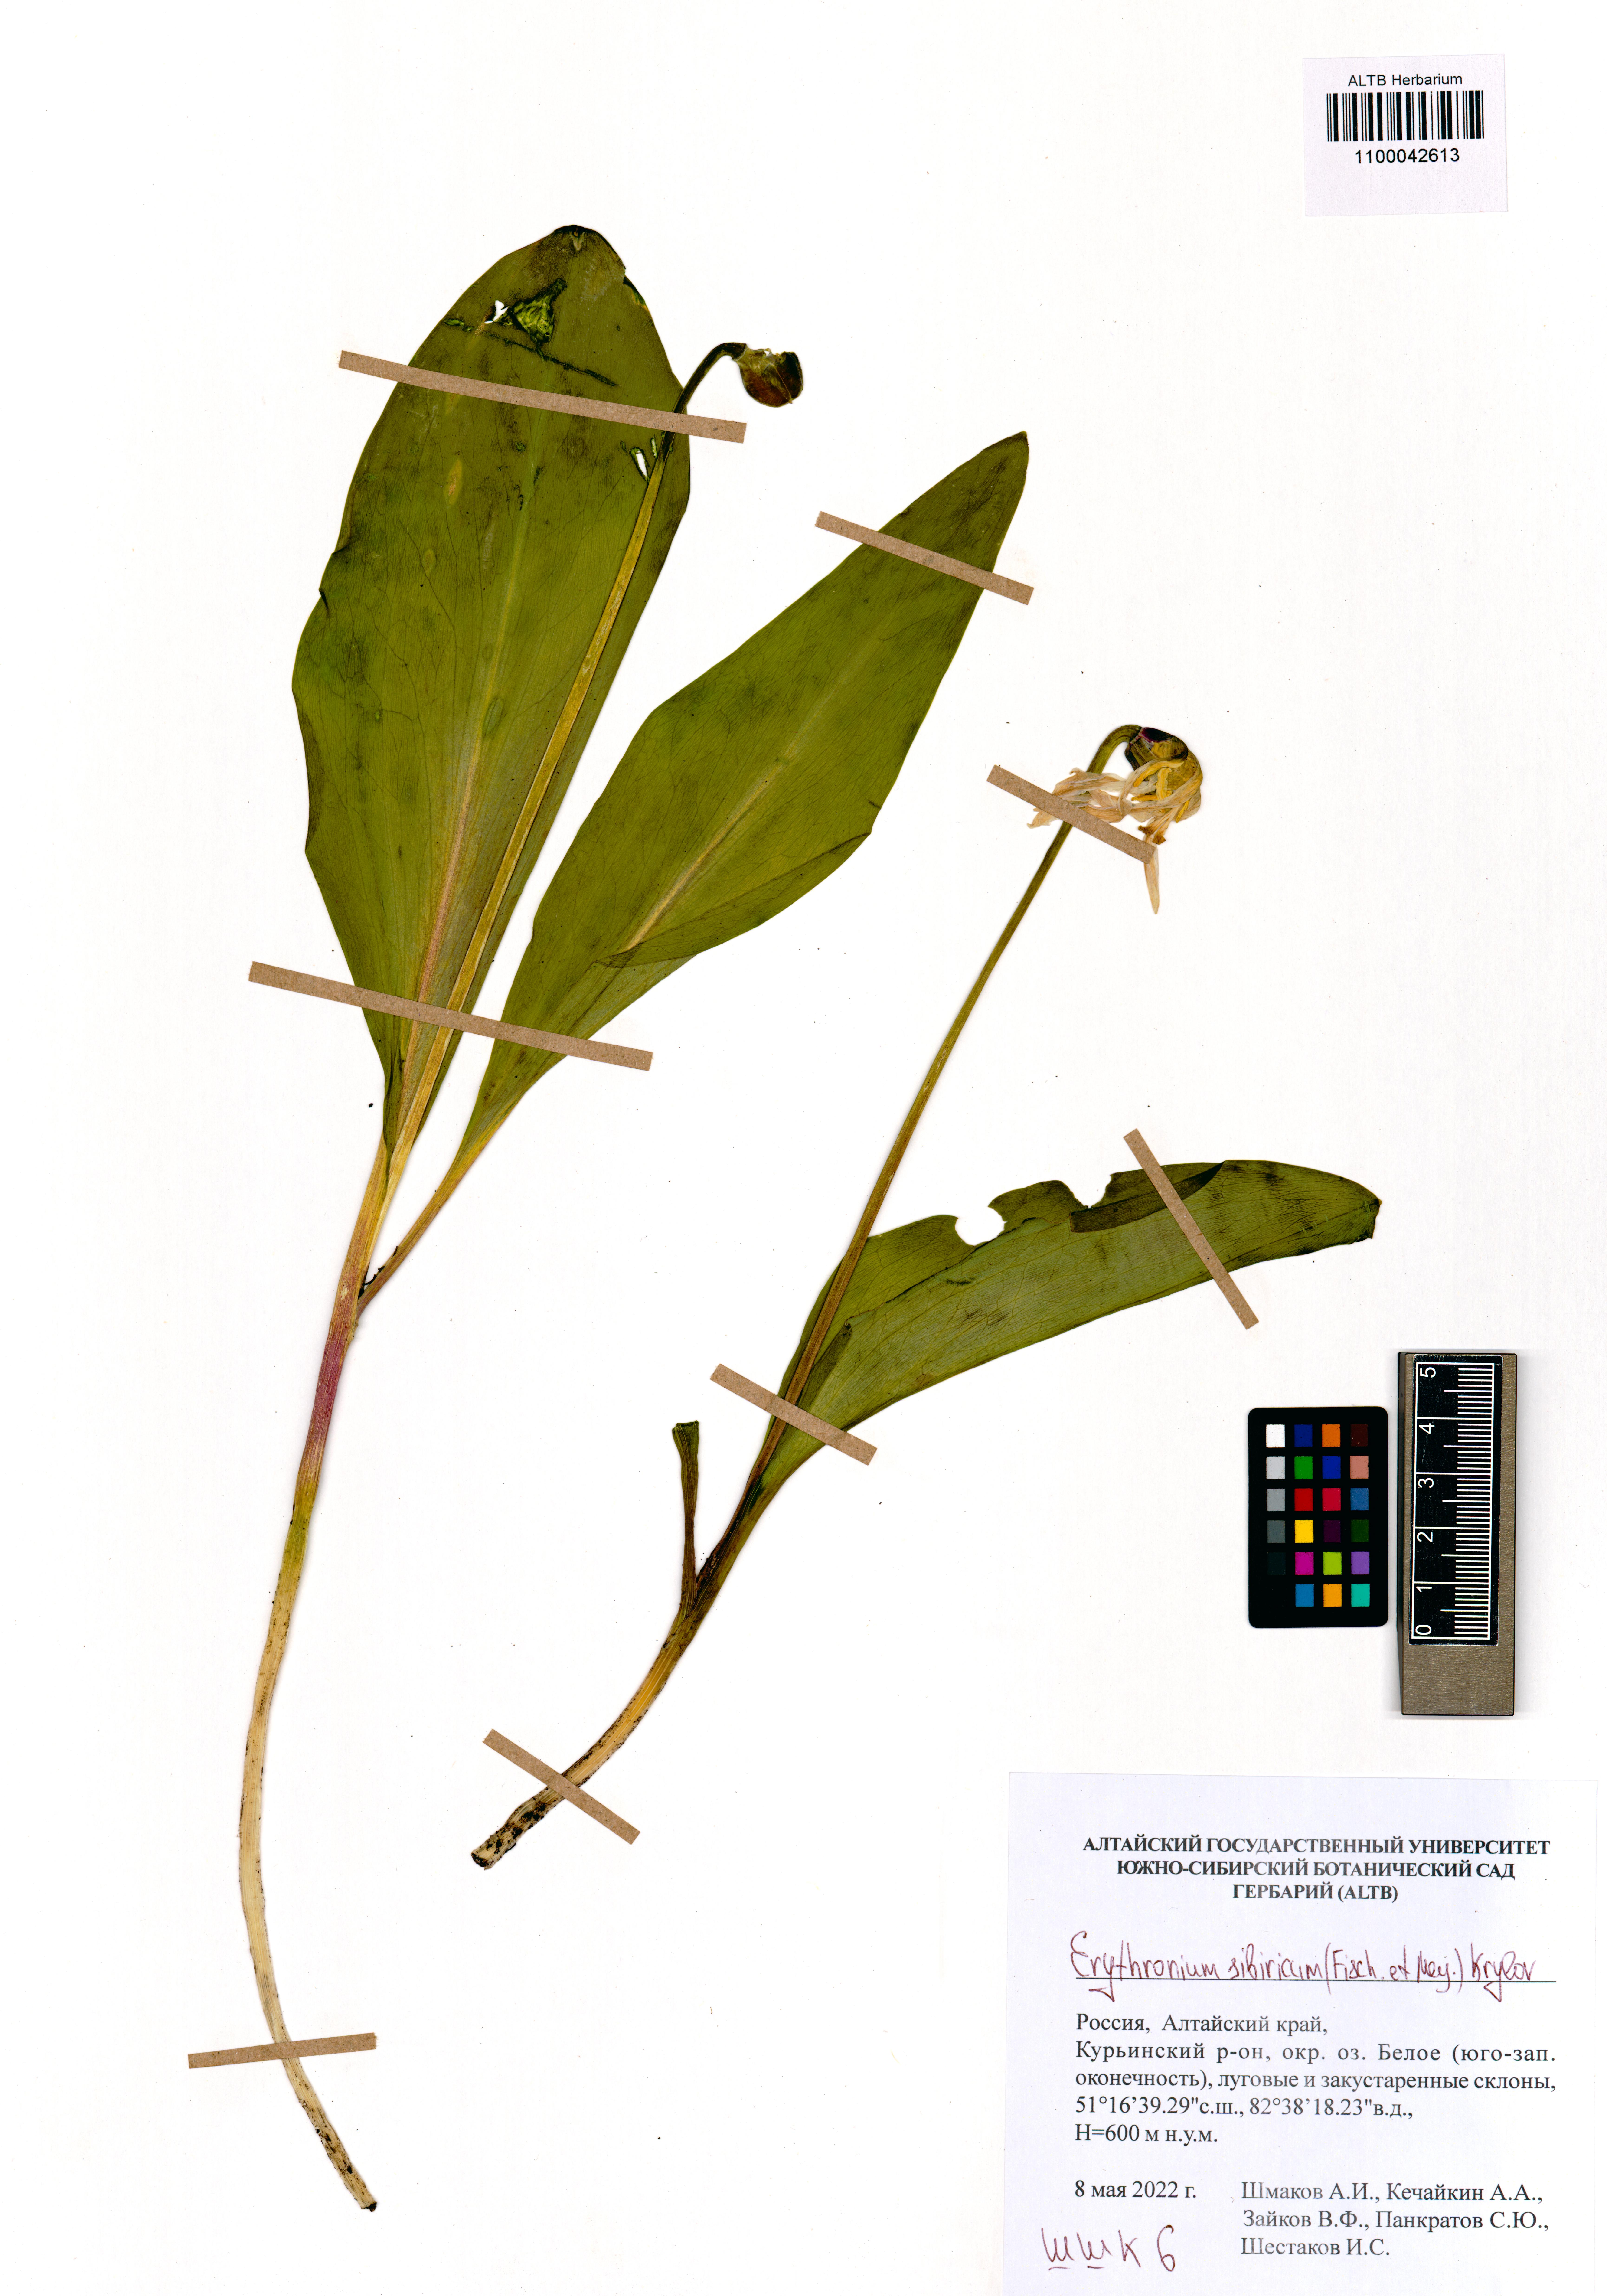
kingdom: Plantae
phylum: Tracheophyta
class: Liliopsida
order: Liliales
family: Liliaceae
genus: Erythronium
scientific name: Erythronium sibiricum
